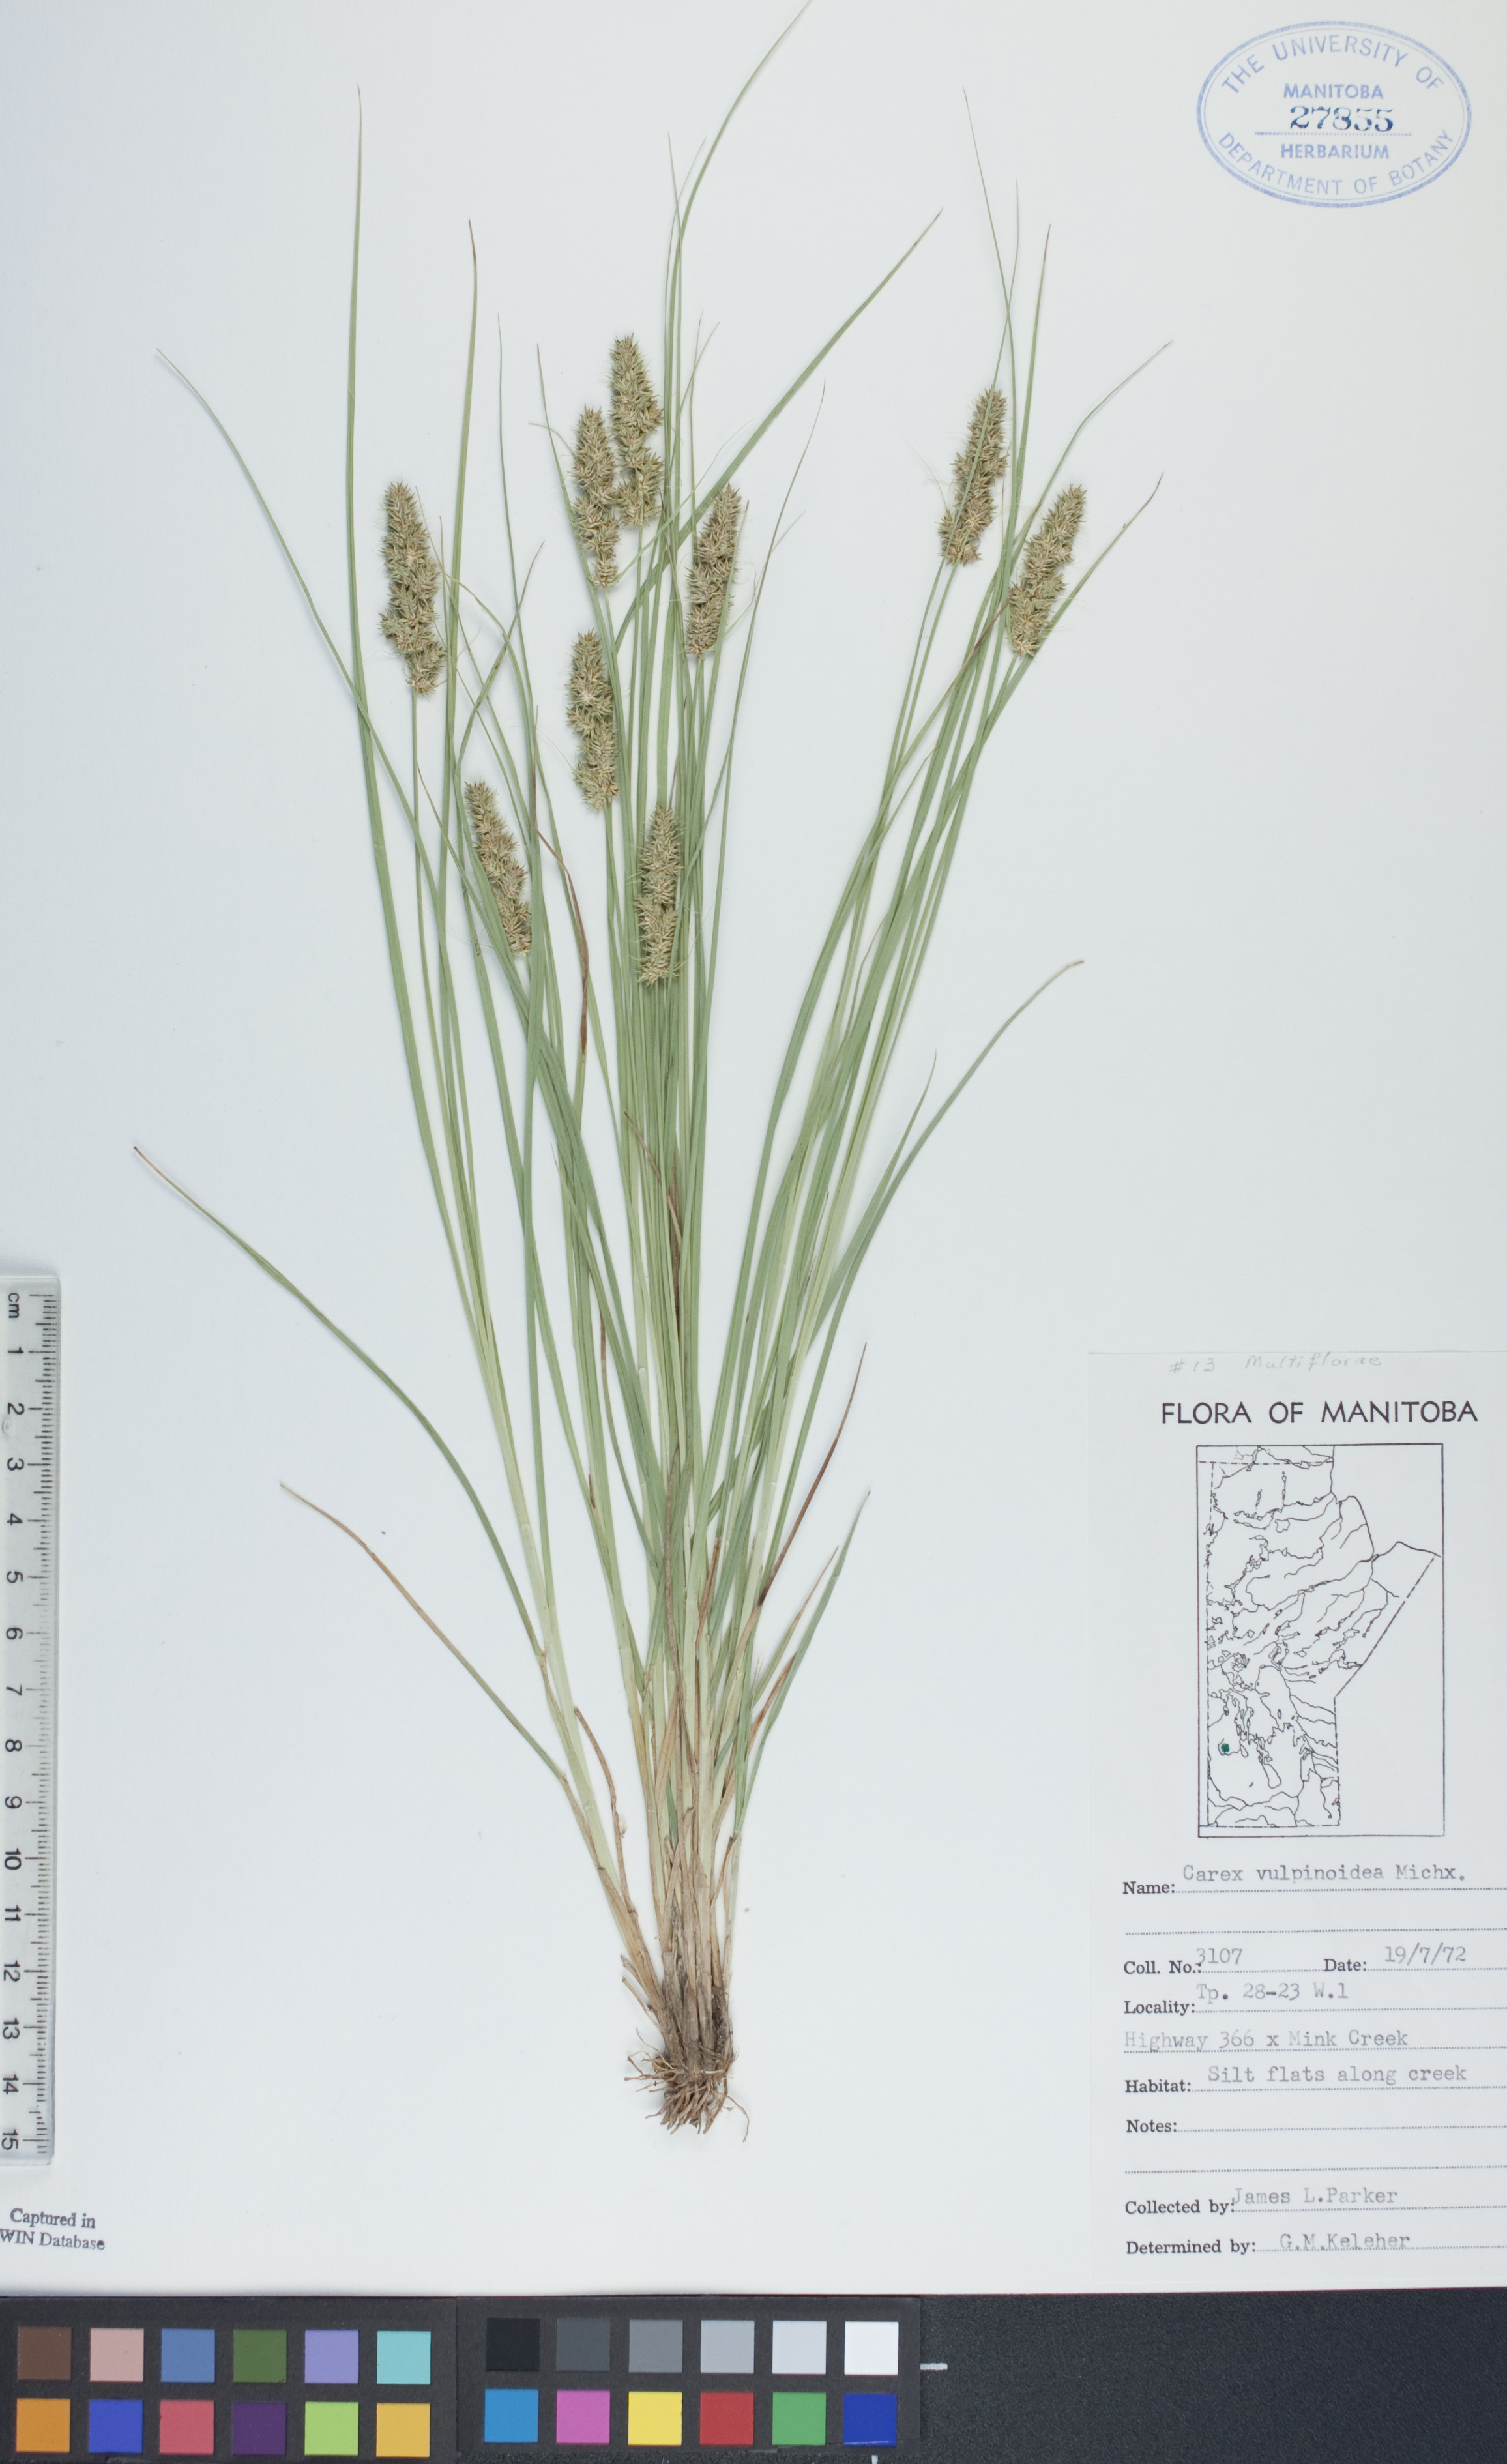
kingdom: Plantae
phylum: Tracheophyta
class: Liliopsida
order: Poales
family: Cyperaceae
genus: Carex
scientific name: Carex vulpinoidea
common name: American fox-sedge
